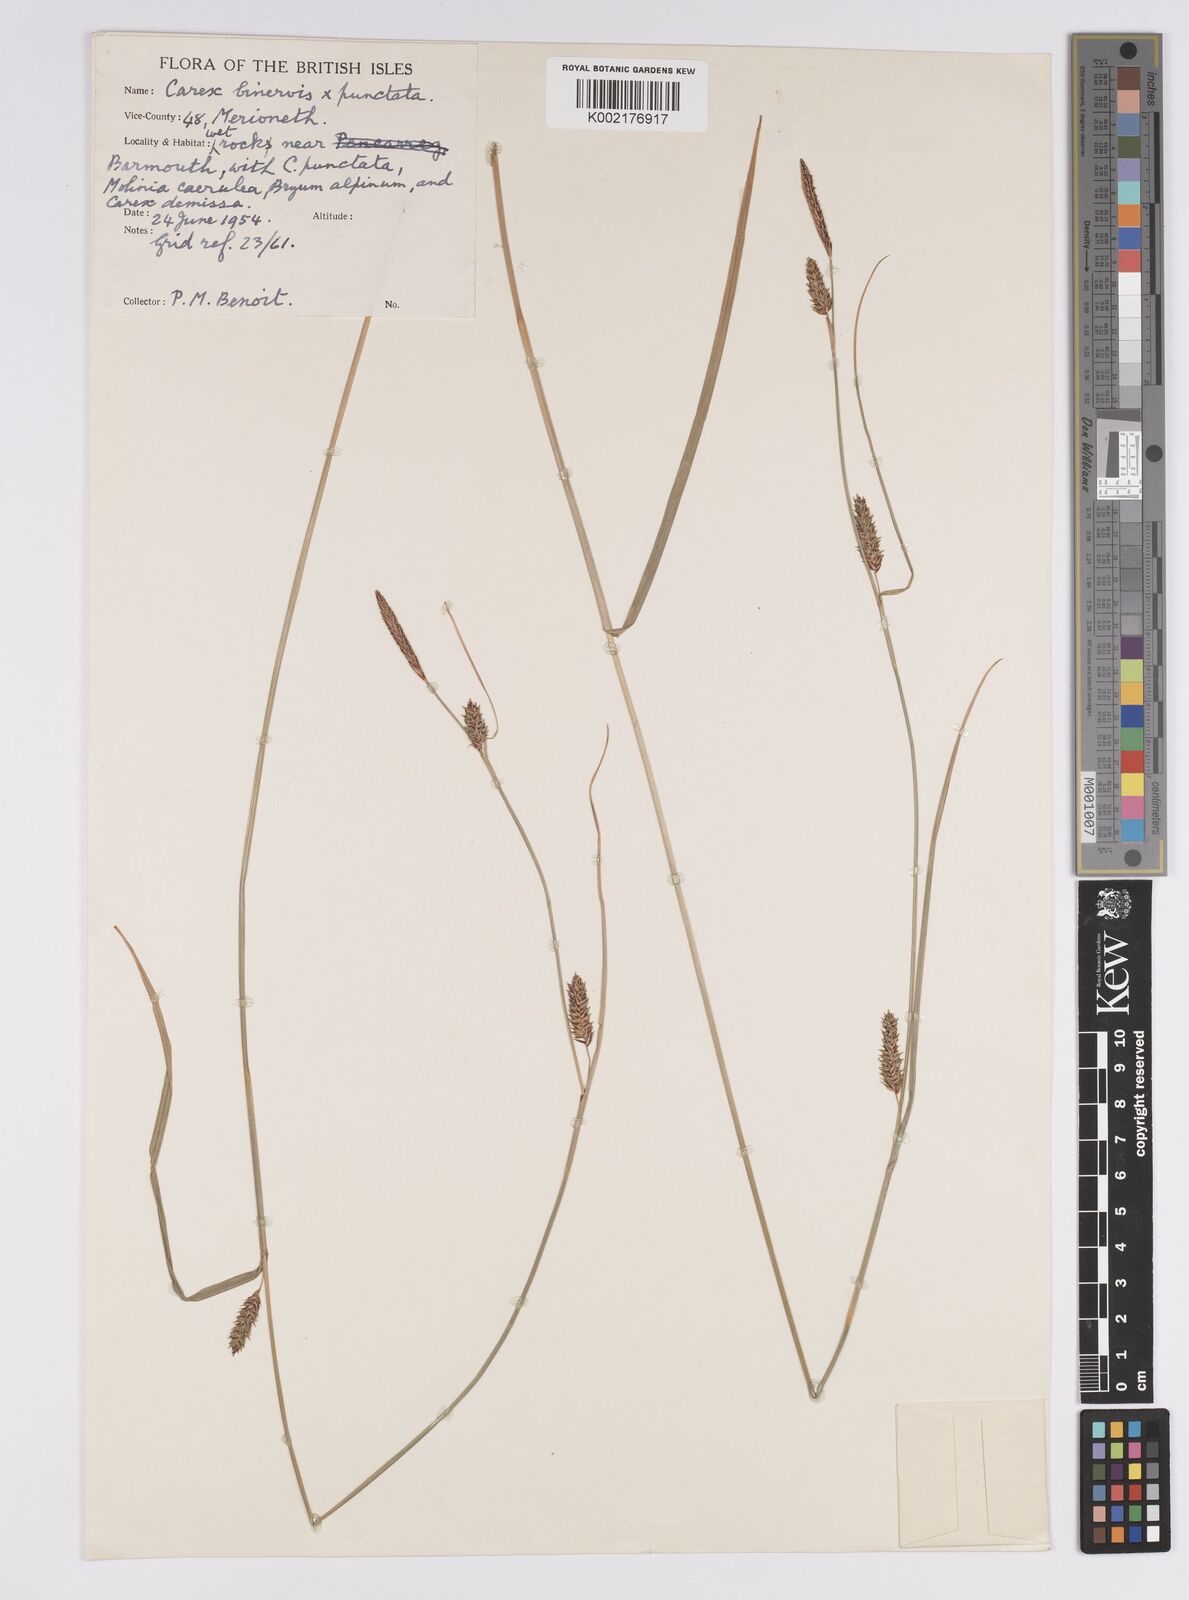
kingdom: Plantae
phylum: Tracheophyta
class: Liliopsida
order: Poales
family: Cyperaceae
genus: Carex
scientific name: Carex
